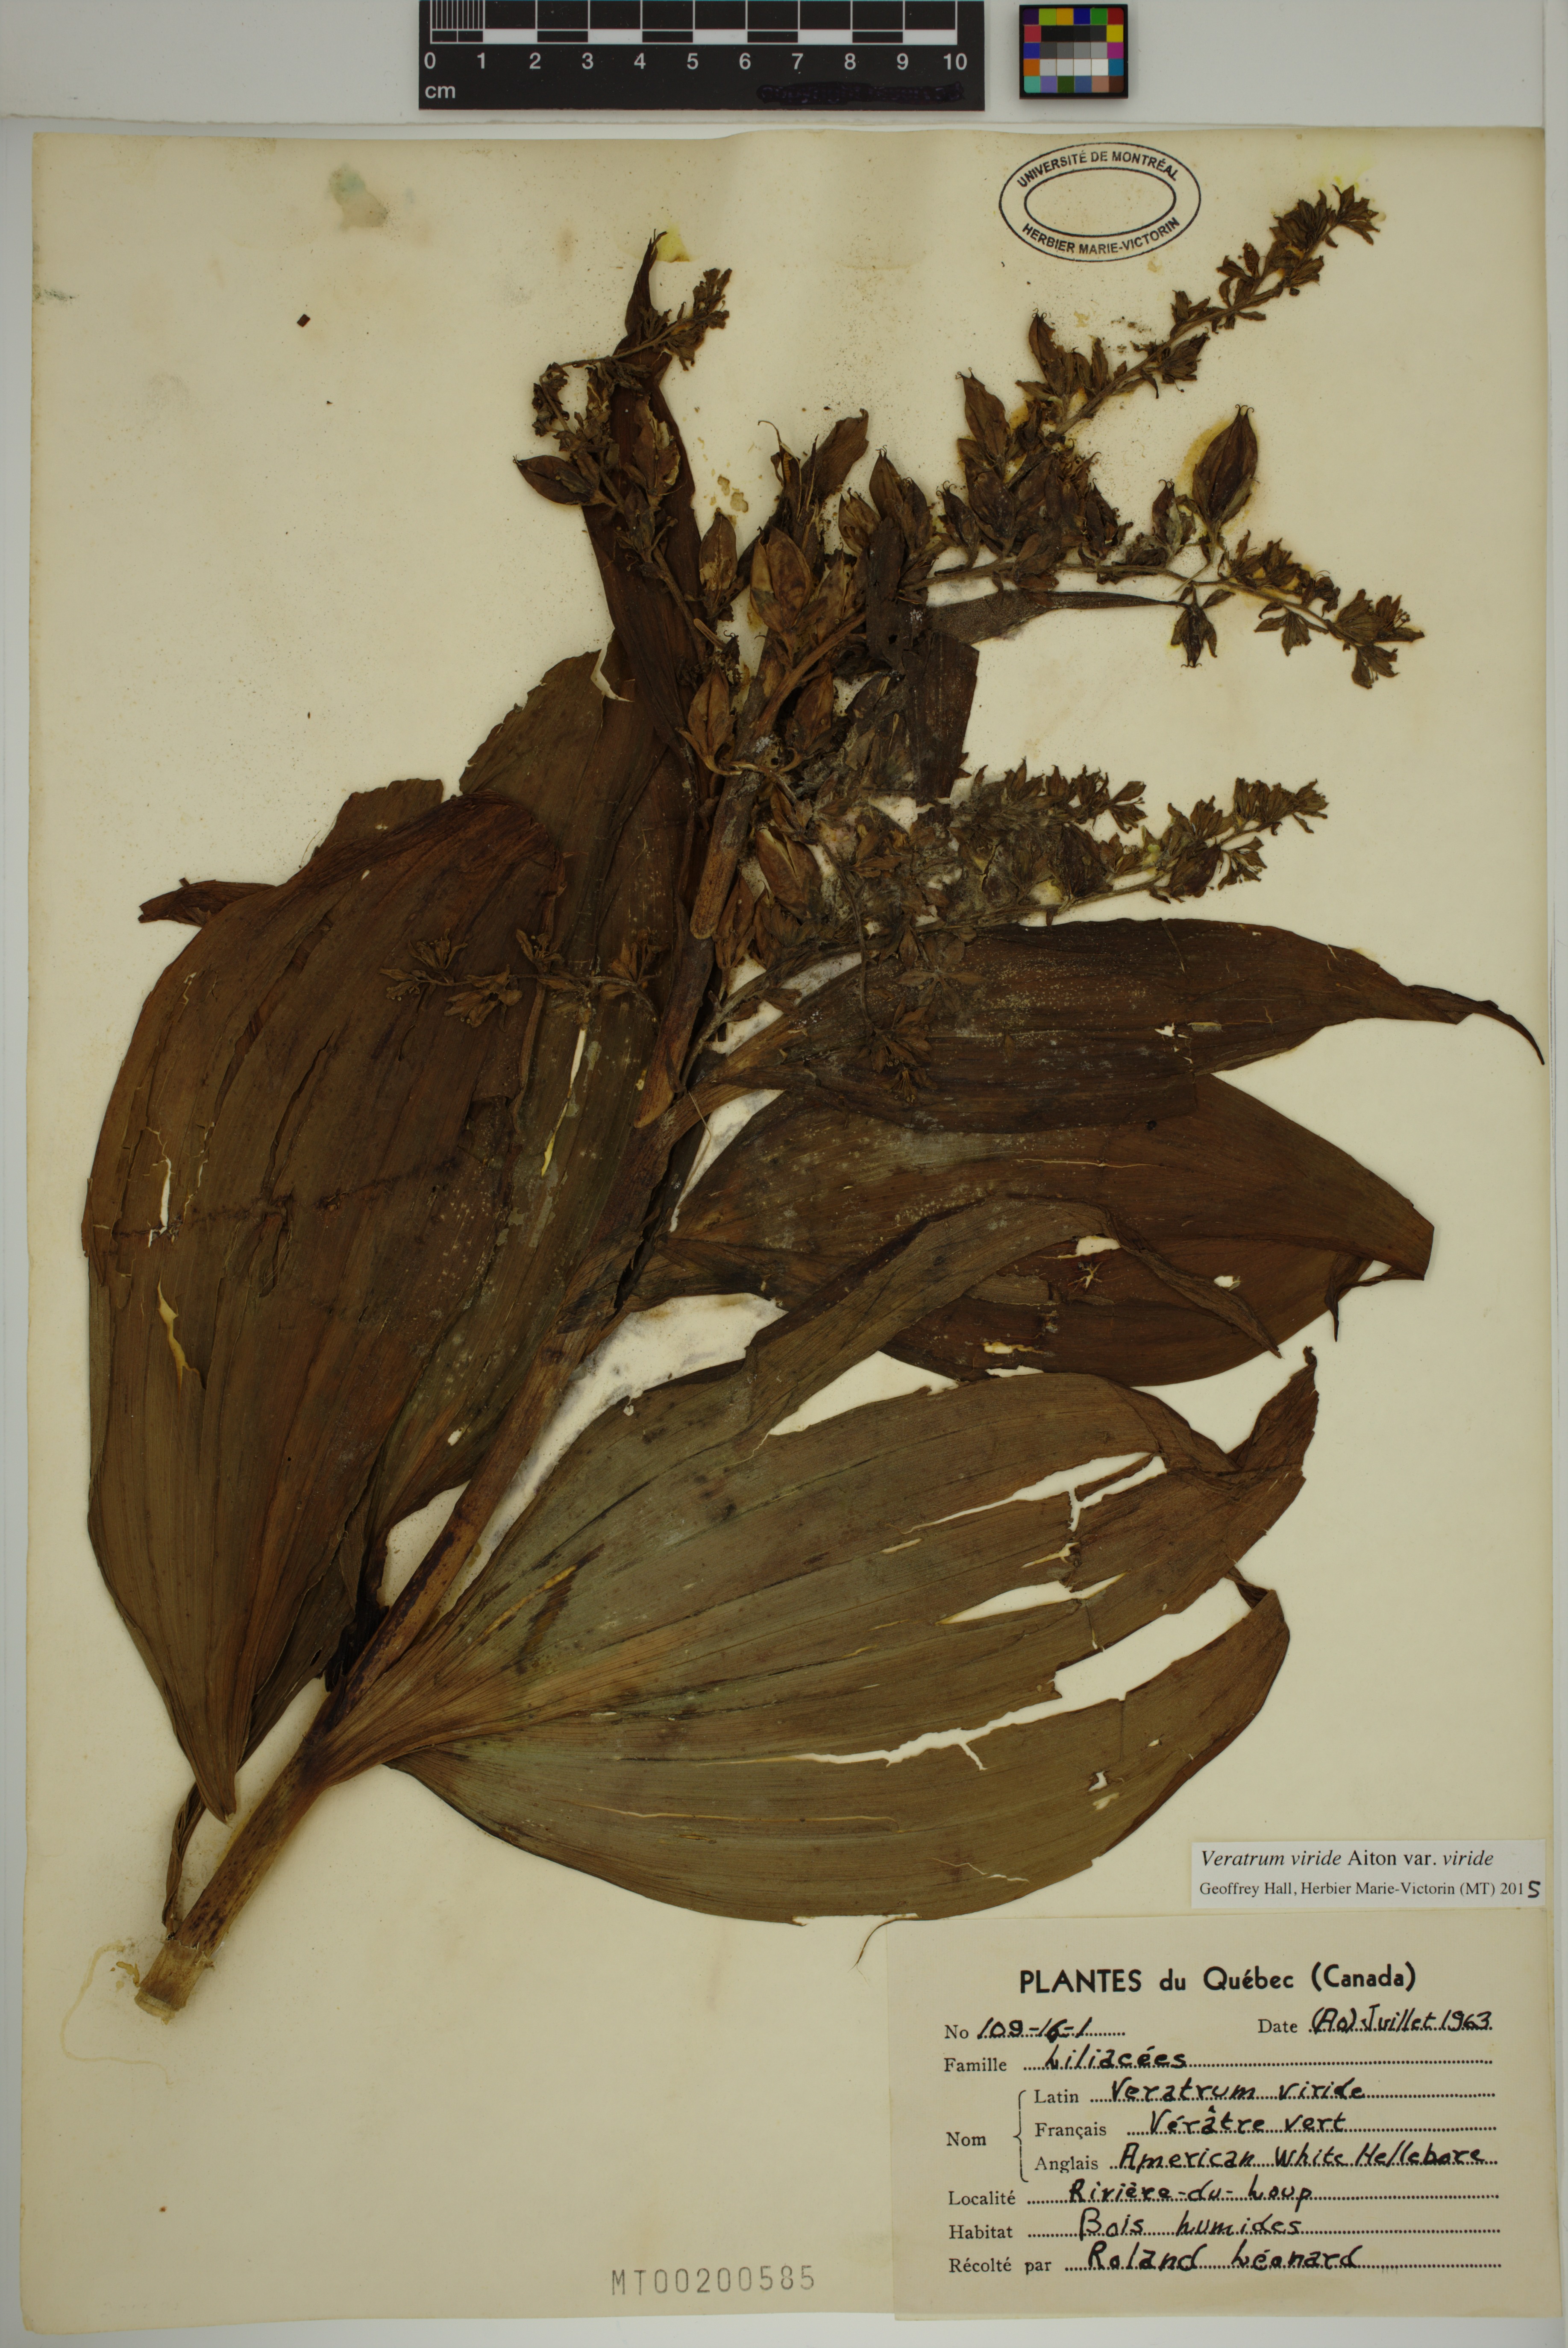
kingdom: Plantae
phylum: Tracheophyta
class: Liliopsida
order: Liliales
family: Melanthiaceae
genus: Veratrum
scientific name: Veratrum viride
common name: American false hellebore
